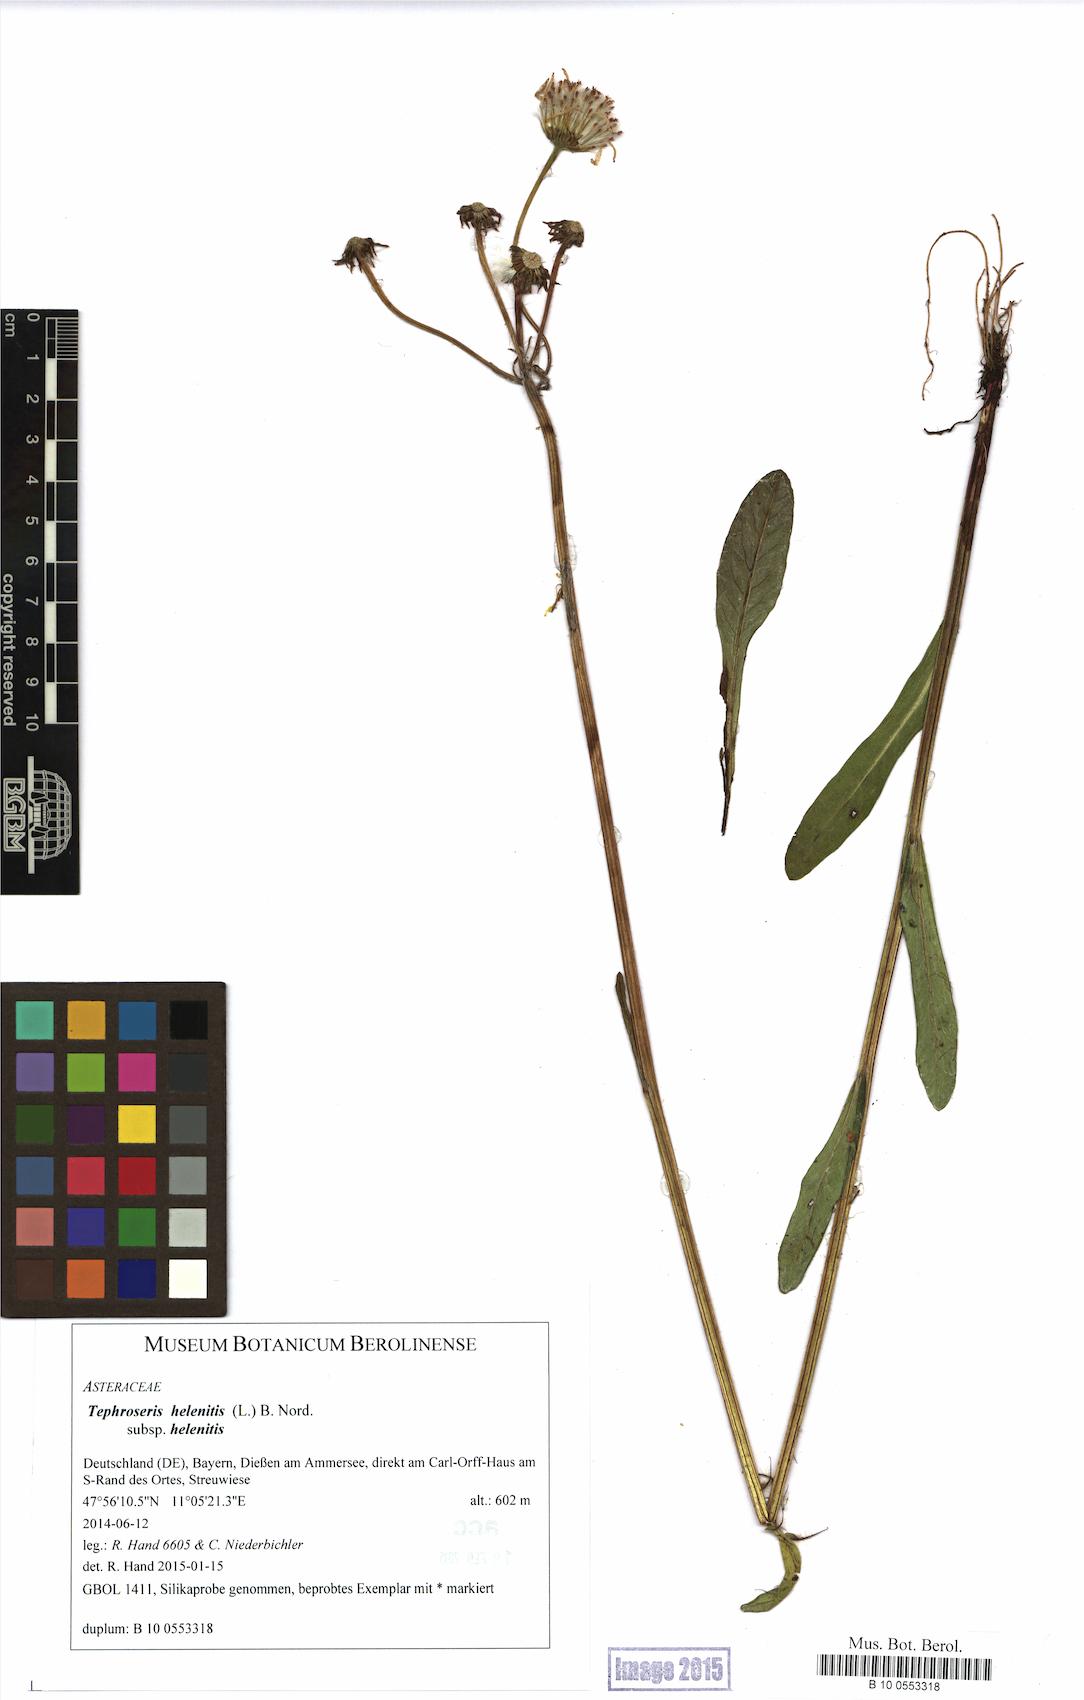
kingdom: Plantae
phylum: Tracheophyta
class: Magnoliopsida
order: Asterales
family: Asteraceae
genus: Tephroseris
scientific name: Tephroseris helenitis
